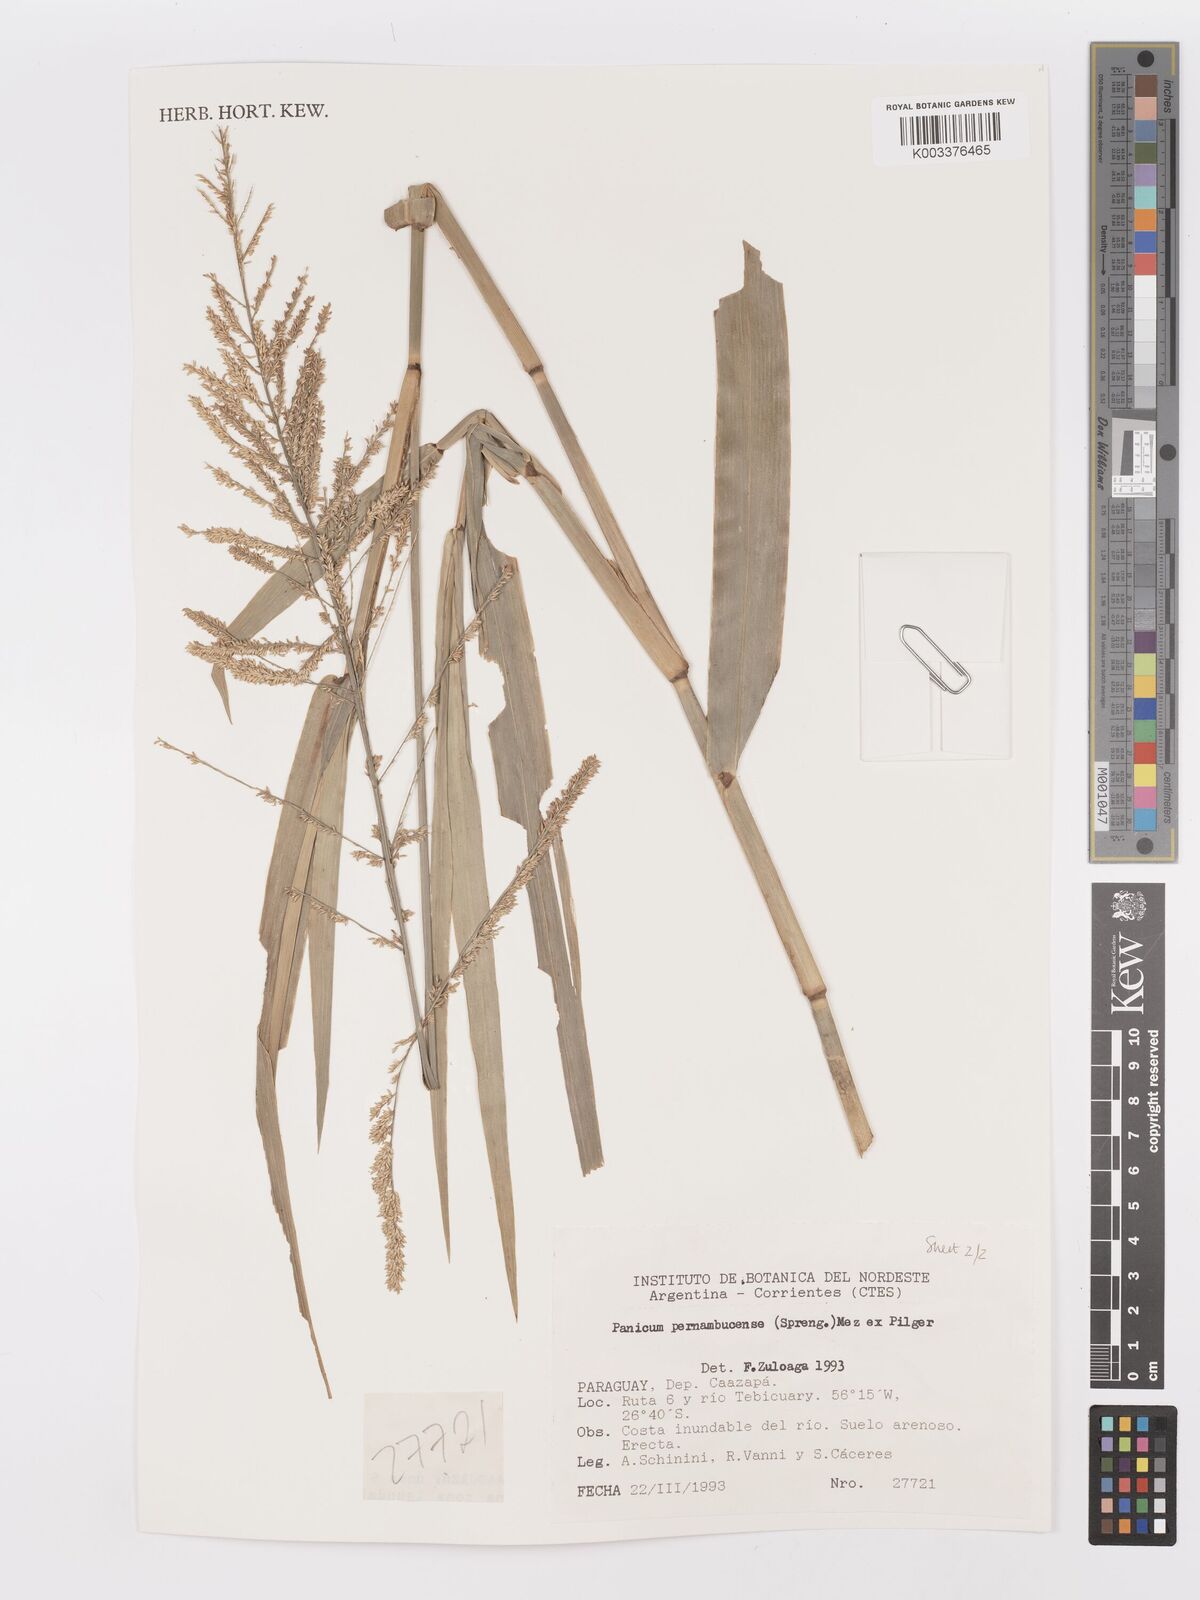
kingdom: Plantae
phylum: Tracheophyta
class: Liliopsida
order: Poales
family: Poaceae
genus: Hymenachne
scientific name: Hymenachne pernambucensis
